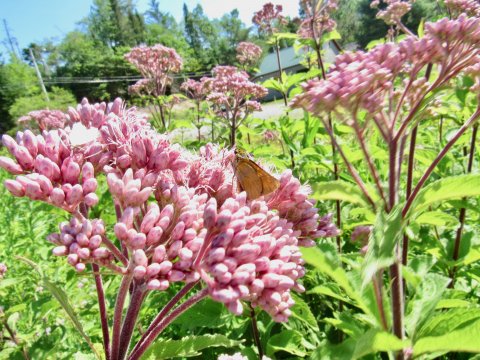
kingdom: Animalia
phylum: Arthropoda
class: Insecta
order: Lepidoptera
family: Hesperiidae
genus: Atrytone
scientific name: Atrytone delaware
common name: Delaware Skipper
